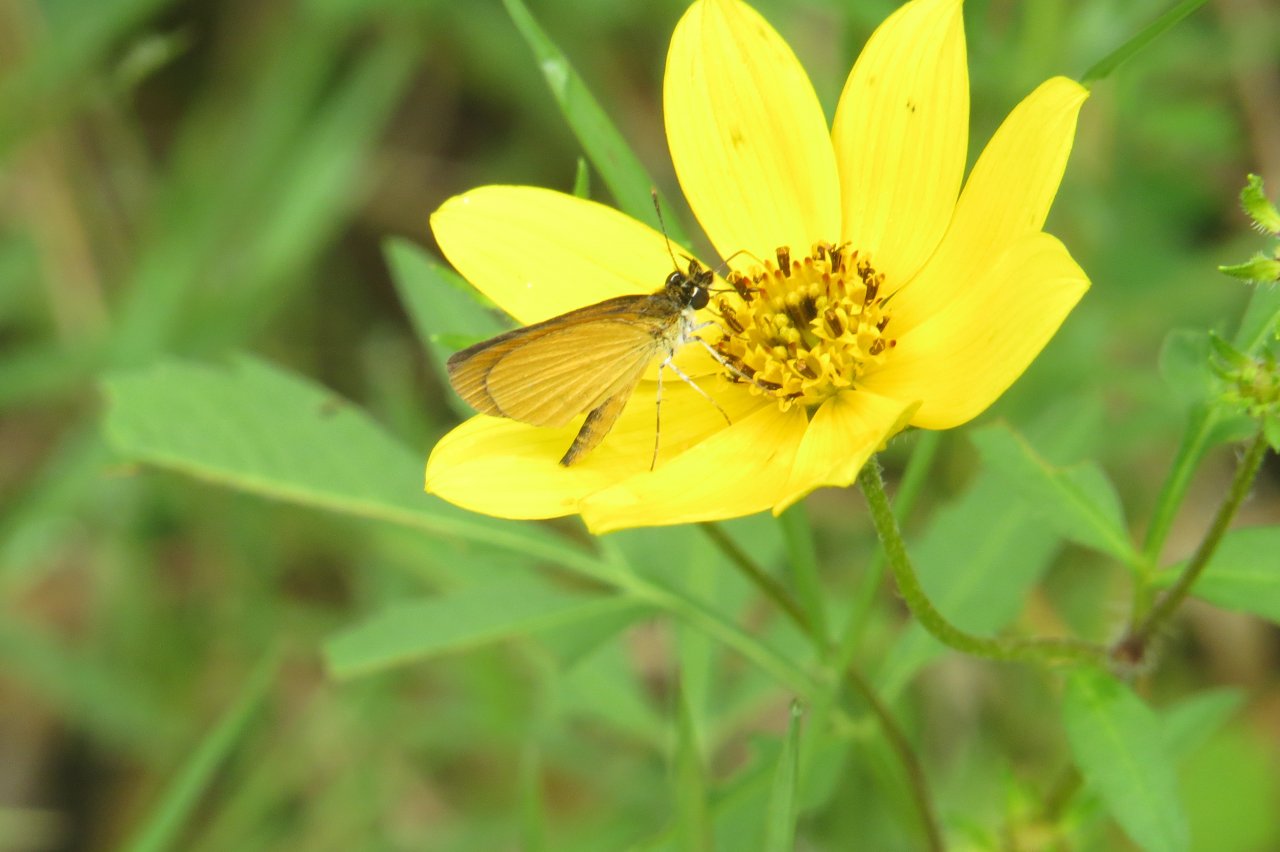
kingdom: Animalia
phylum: Arthropoda
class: Insecta
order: Lepidoptera
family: Hesperiidae
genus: Ancyloxypha
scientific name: Ancyloxypha numitor
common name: Least Skipper
